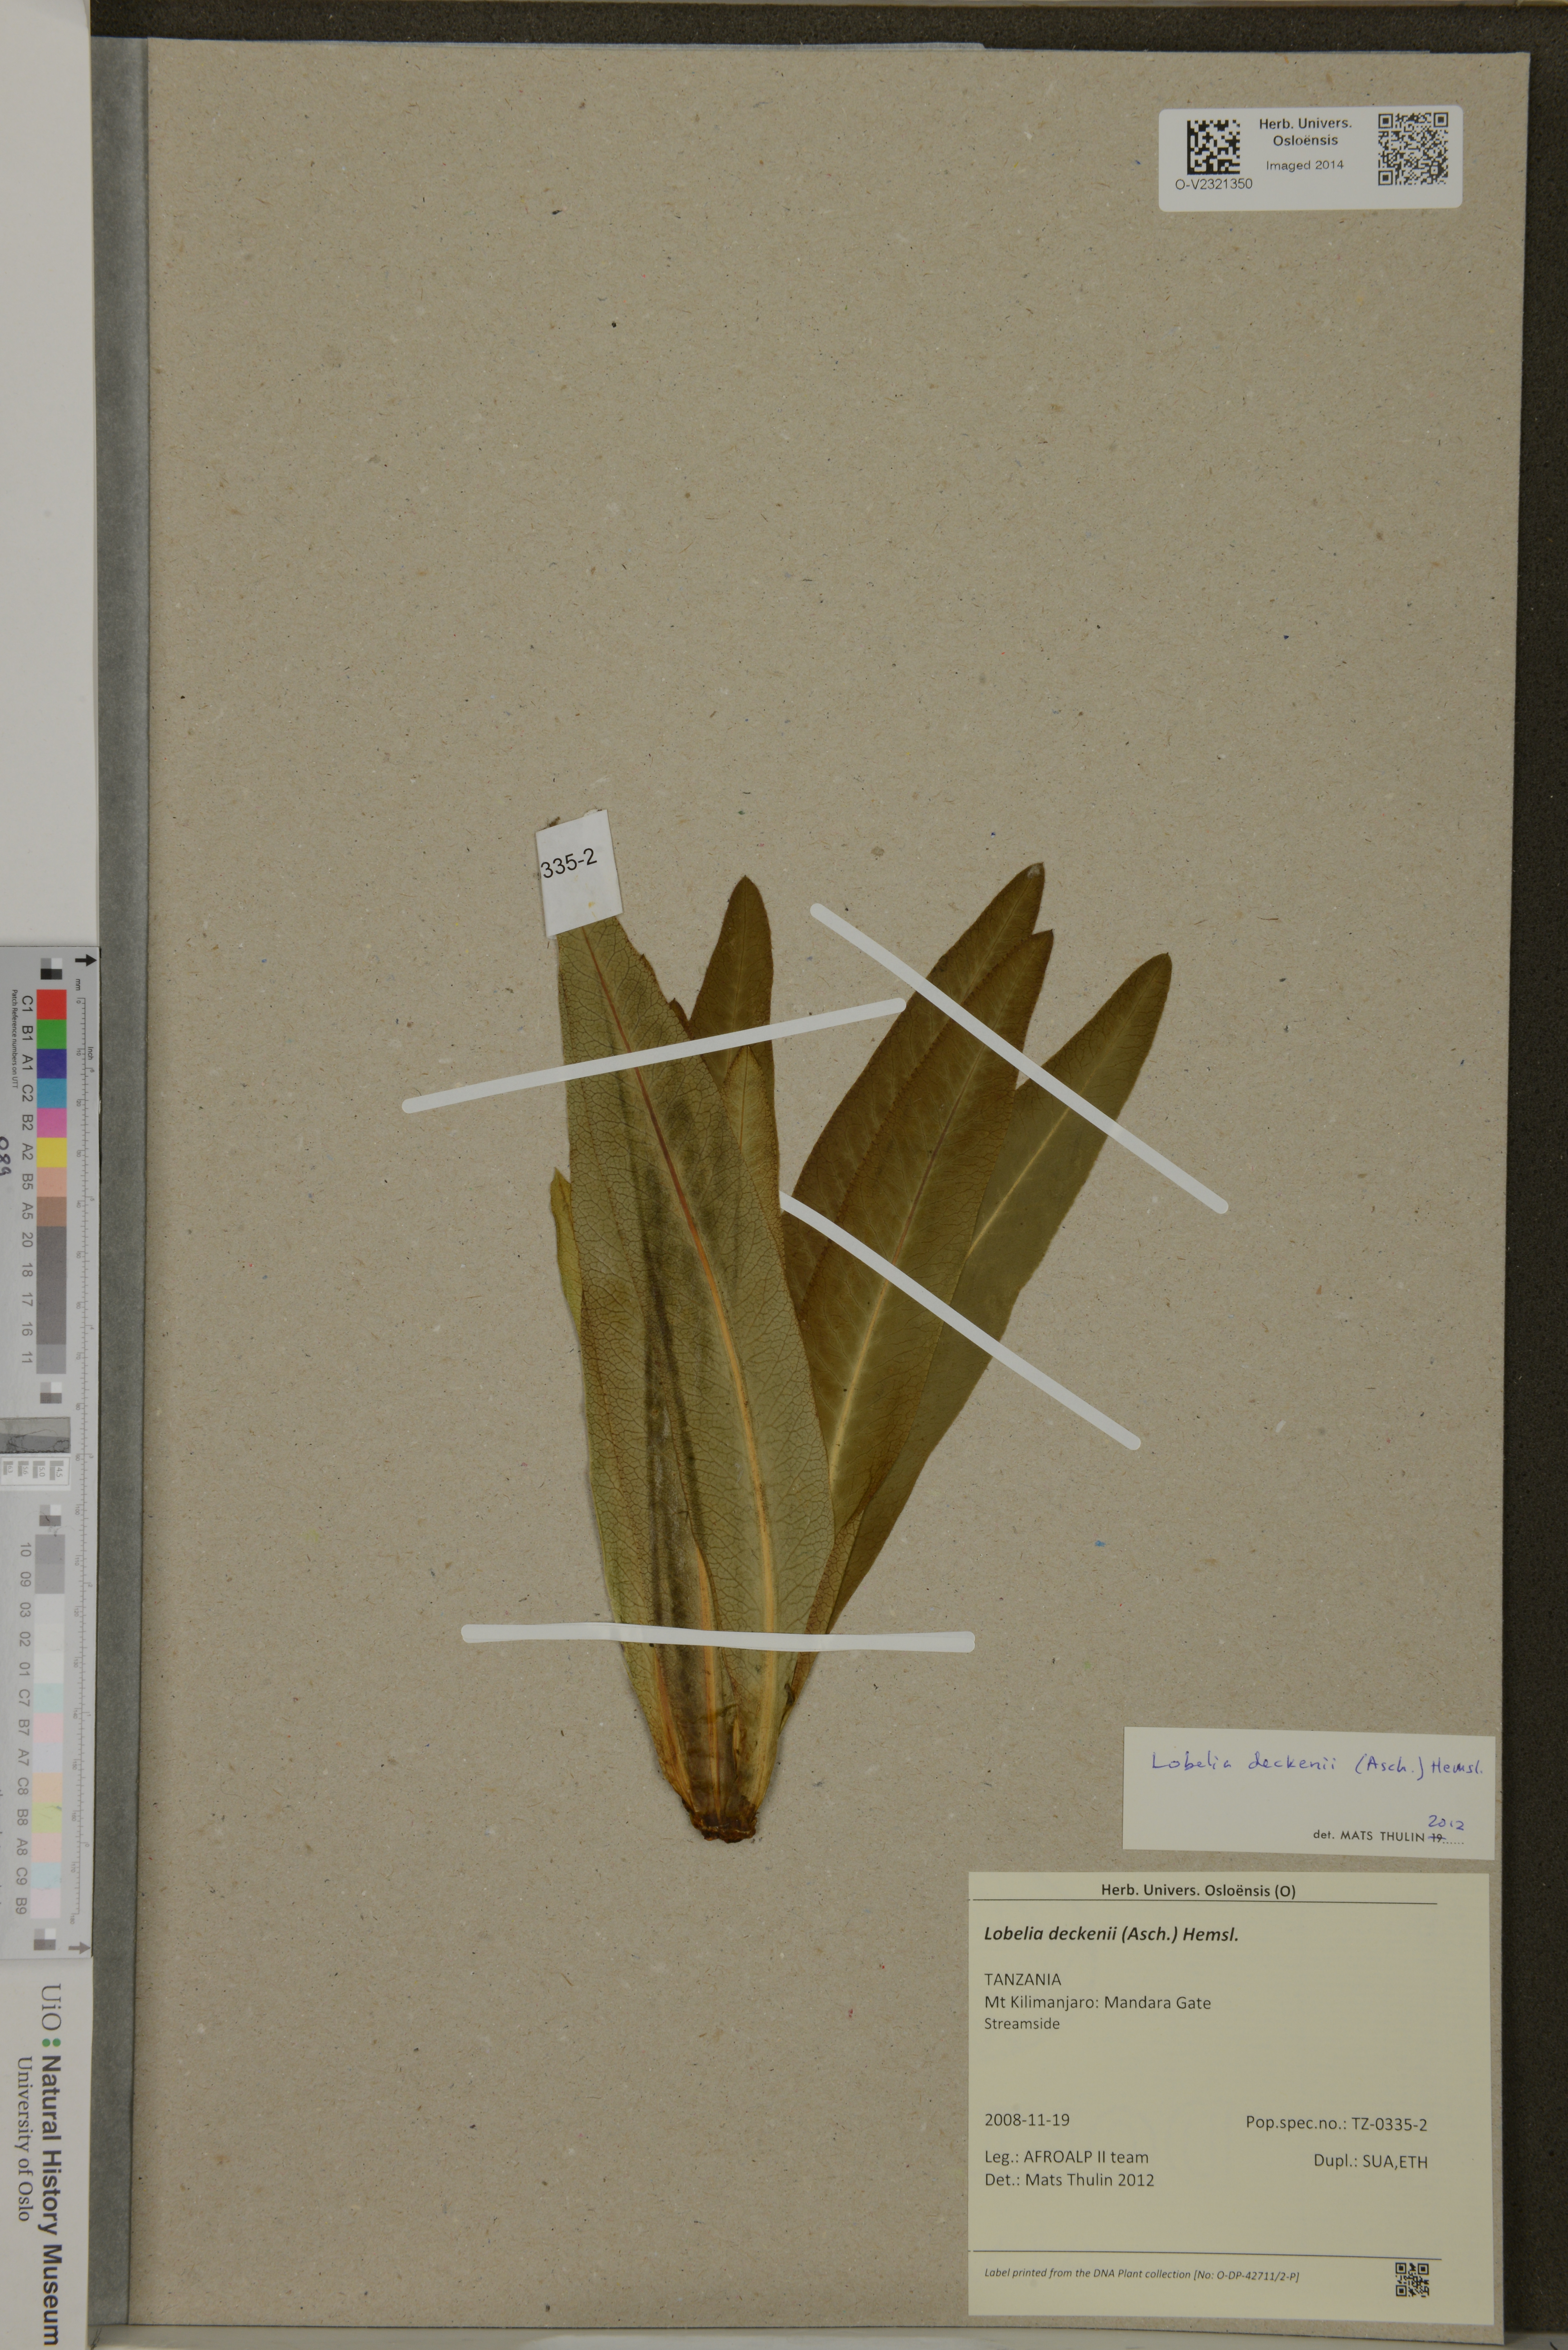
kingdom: Plantae
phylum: Tracheophyta
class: Magnoliopsida
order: Asterales
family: Campanulaceae
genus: Lobelia
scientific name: Lobelia deckenii
